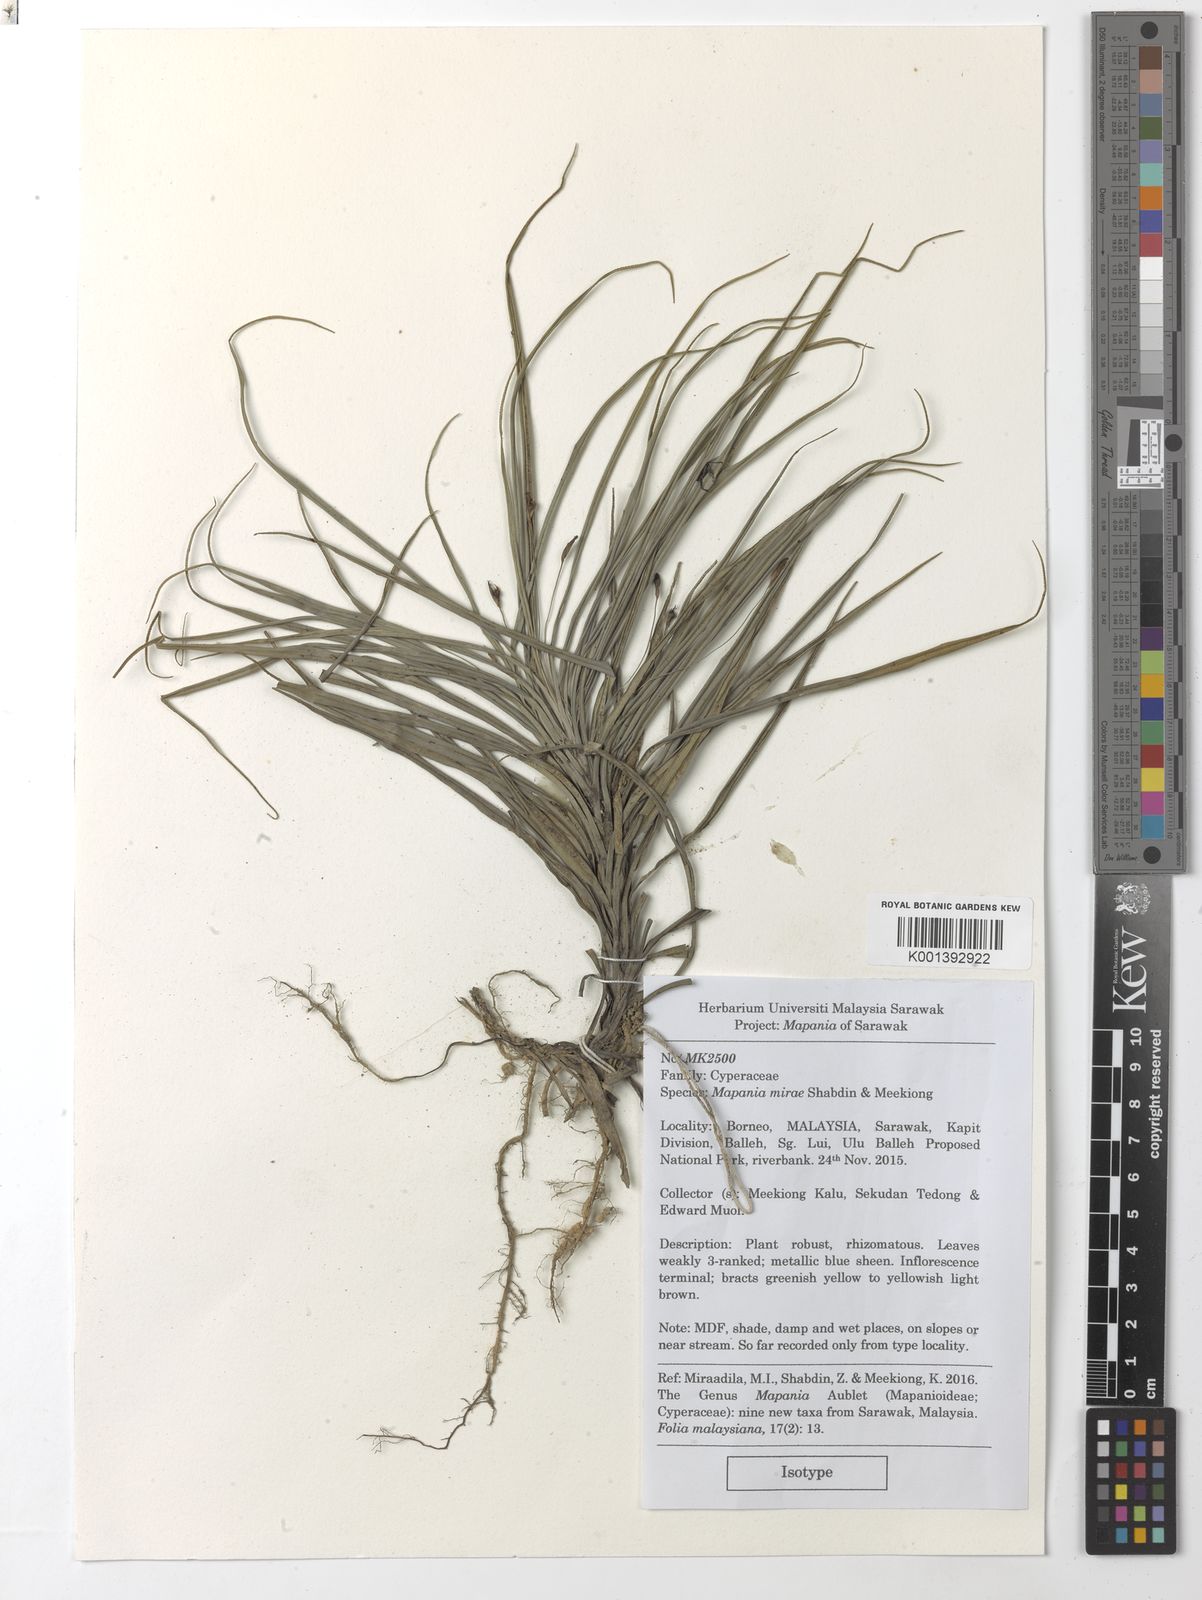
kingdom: Plantae
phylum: Tracheophyta
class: Liliopsida
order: Poales
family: Cyperaceae
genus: Mapania
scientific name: Mapania mirae
